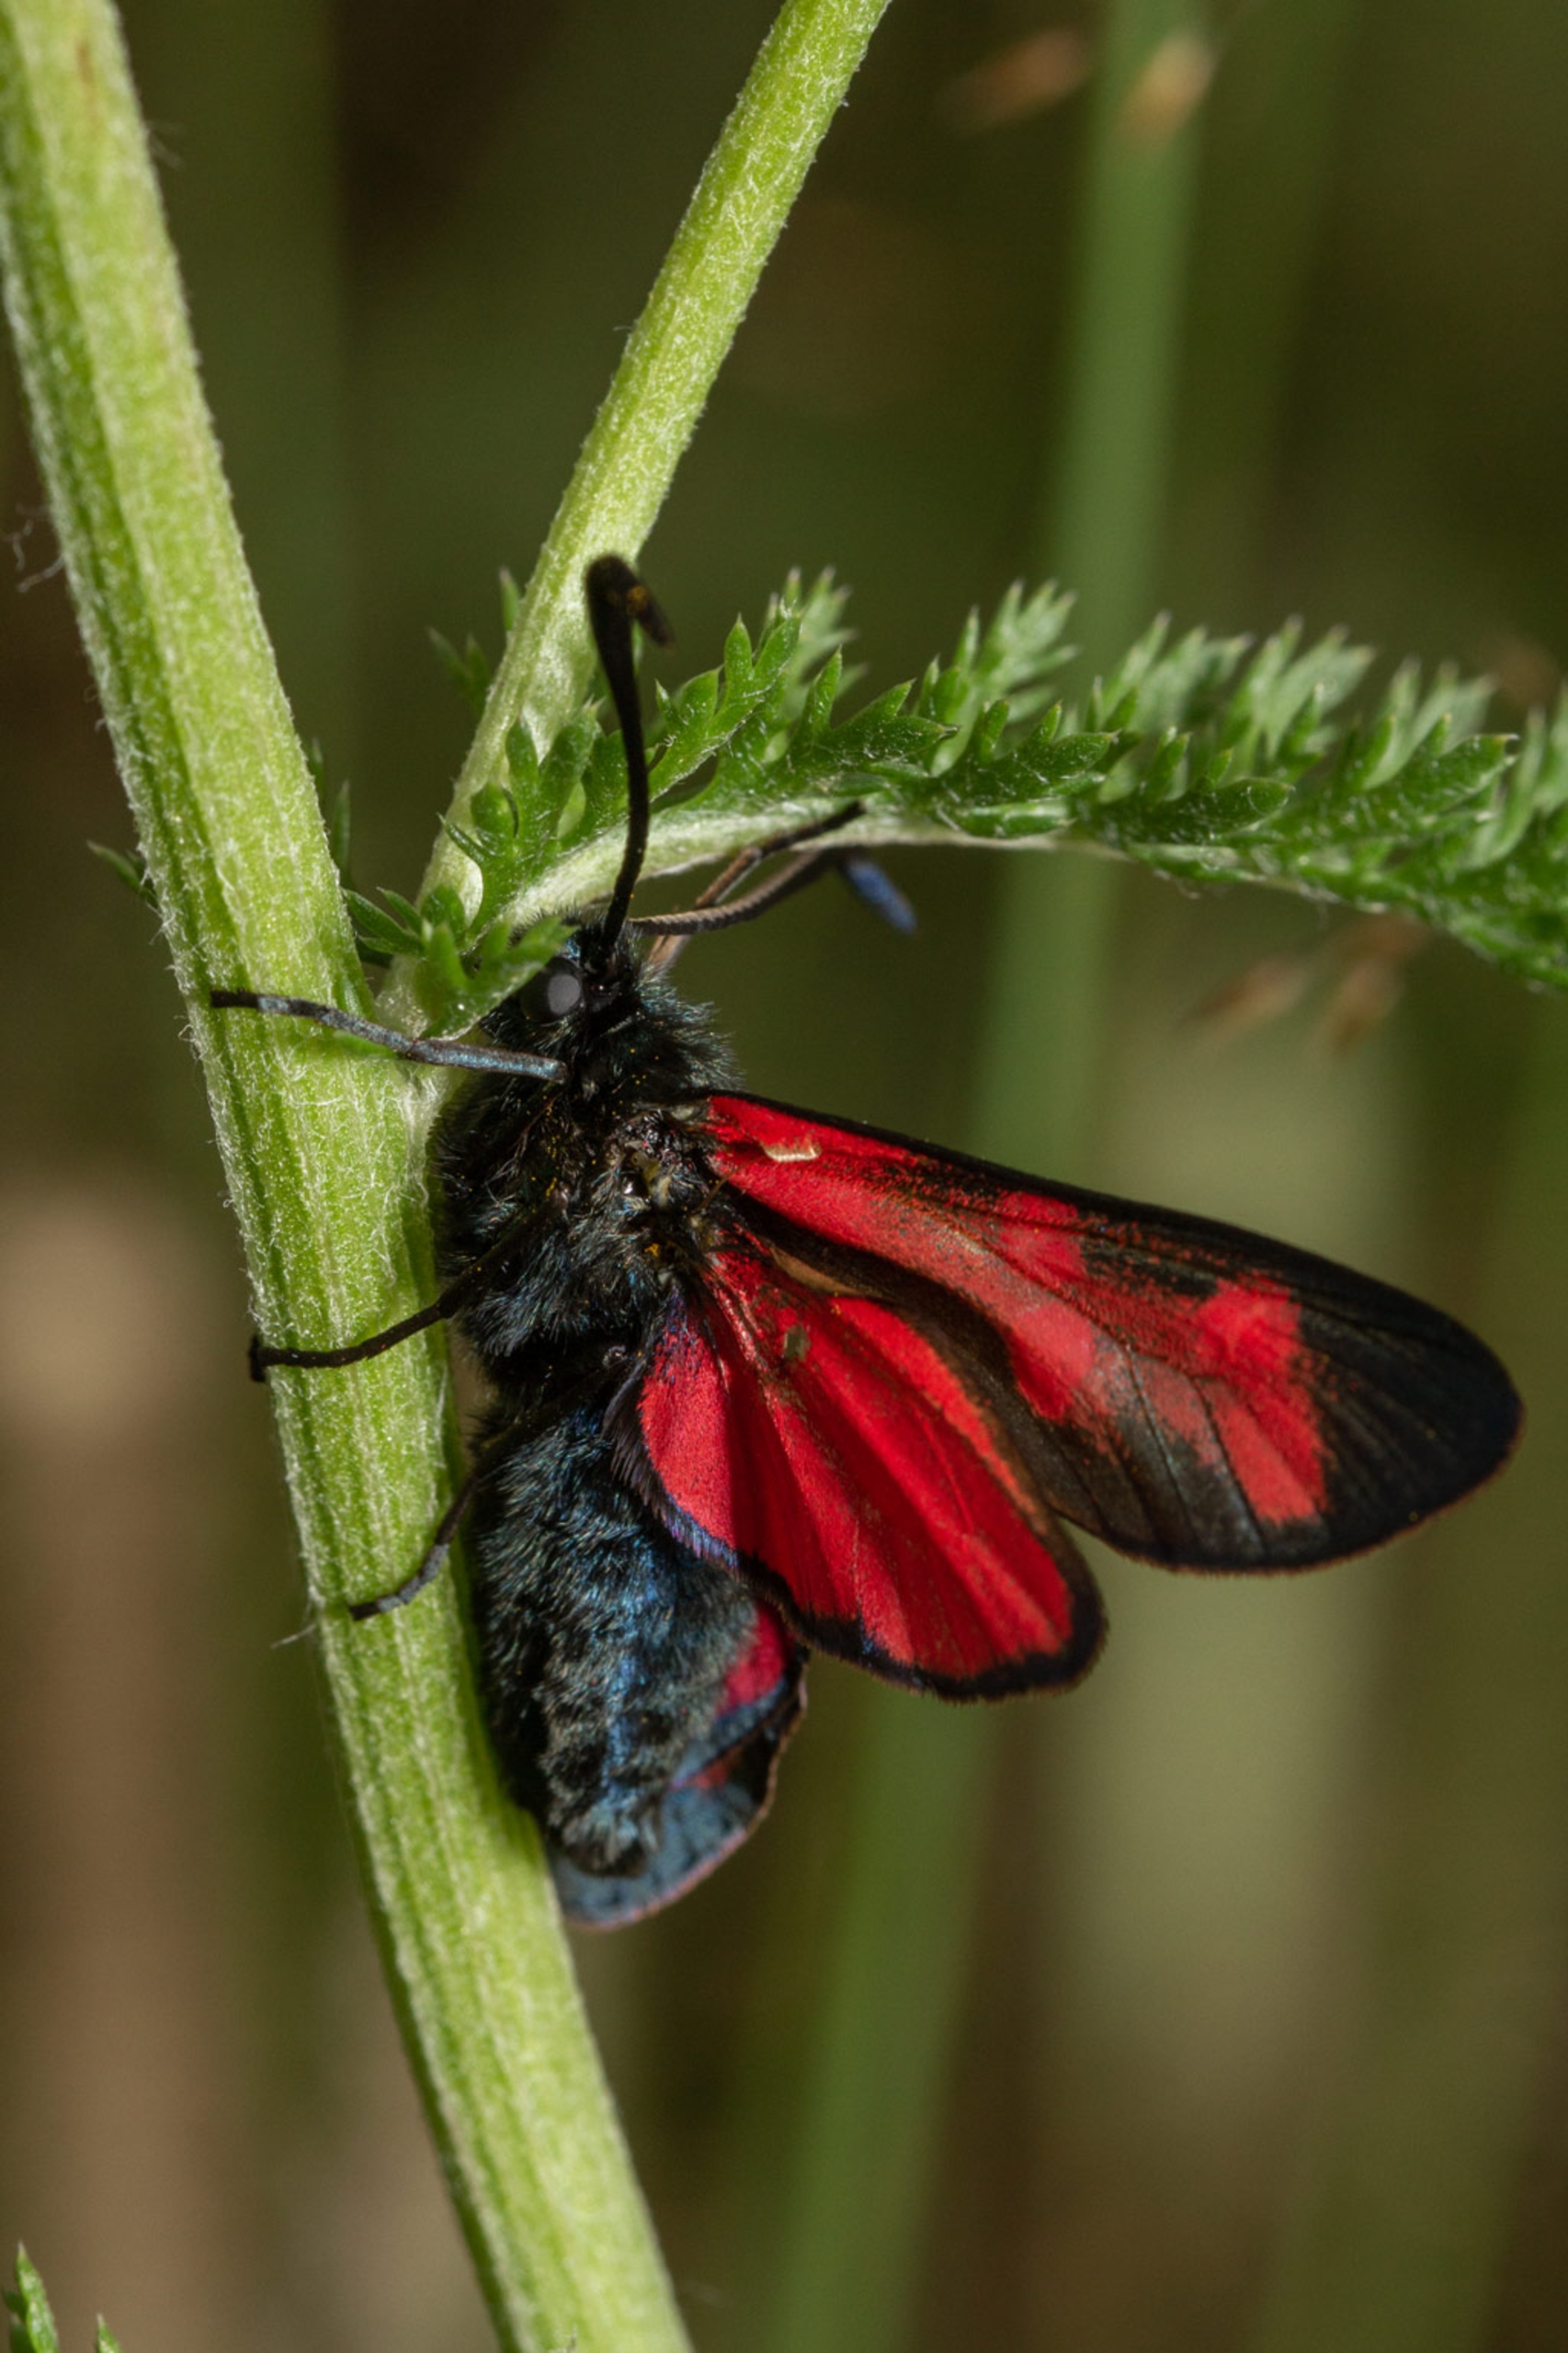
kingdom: Animalia
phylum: Arthropoda
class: Insecta
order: Lepidoptera
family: Zygaenidae
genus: Zygaena
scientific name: Zygaena filipendulae
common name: Seksplettet køllesværmer
